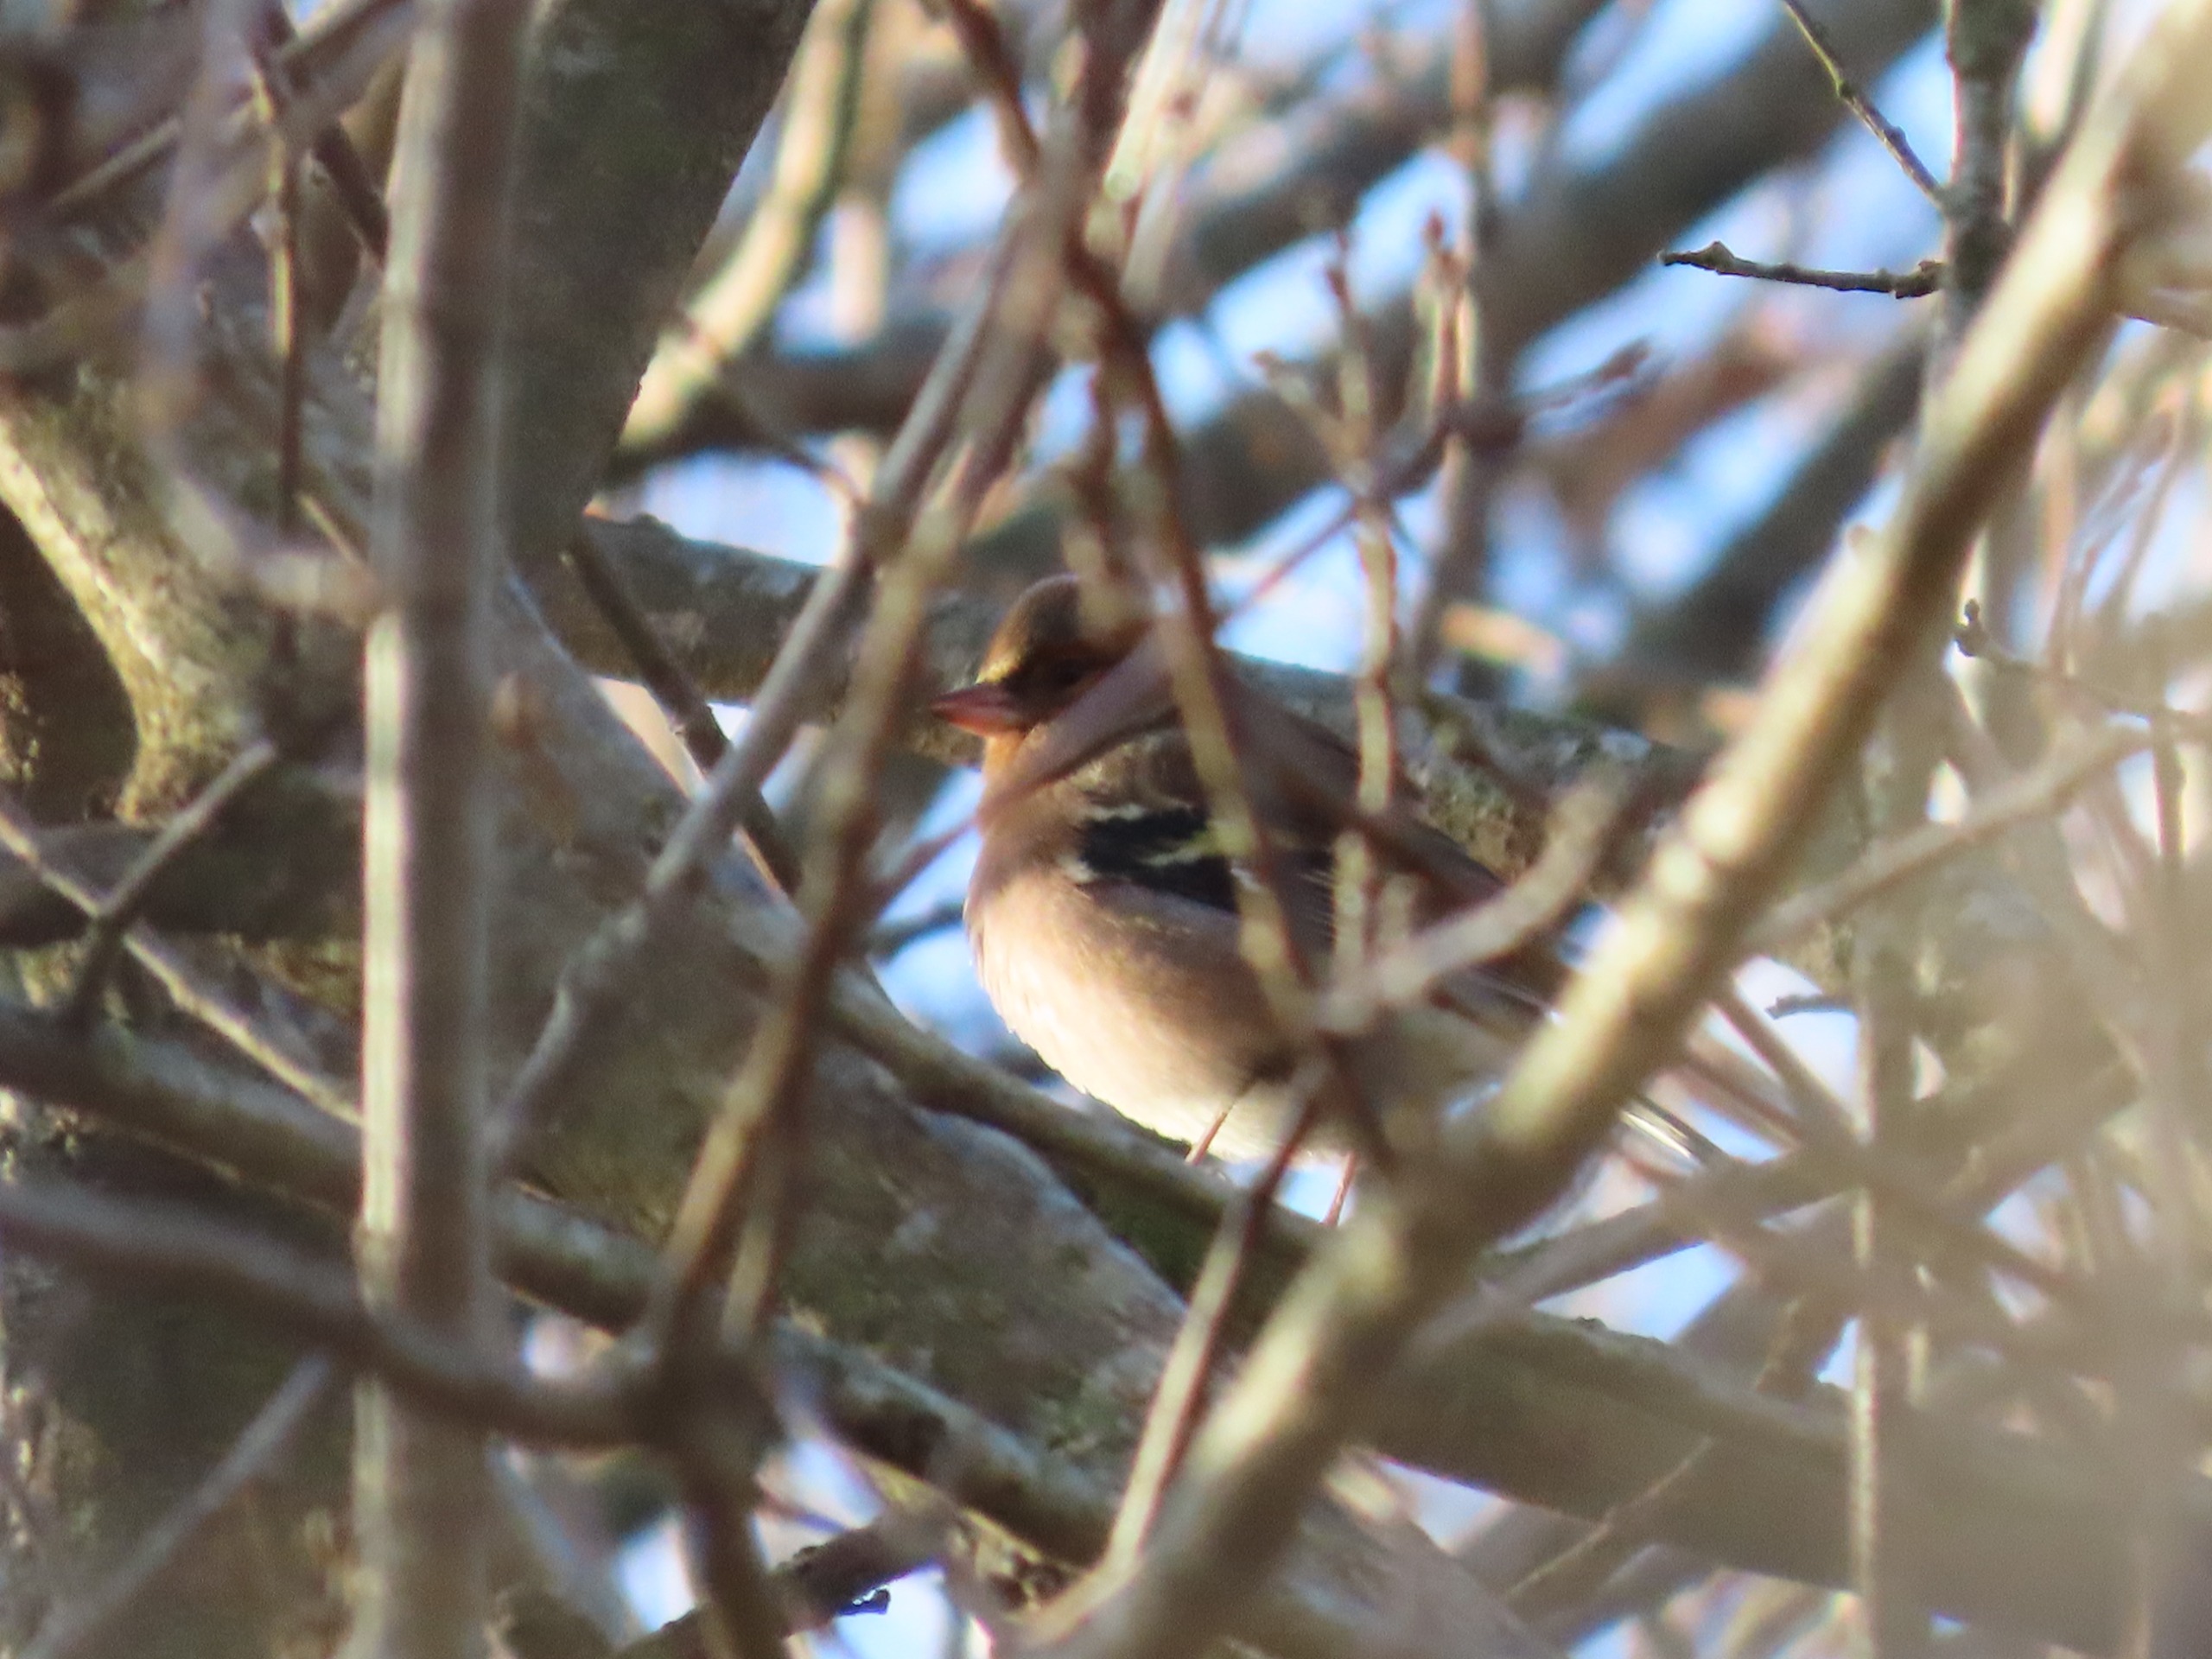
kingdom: Animalia
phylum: Chordata
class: Aves
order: Passeriformes
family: Fringillidae
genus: Fringilla
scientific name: Fringilla coelebs
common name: Bogfinke
